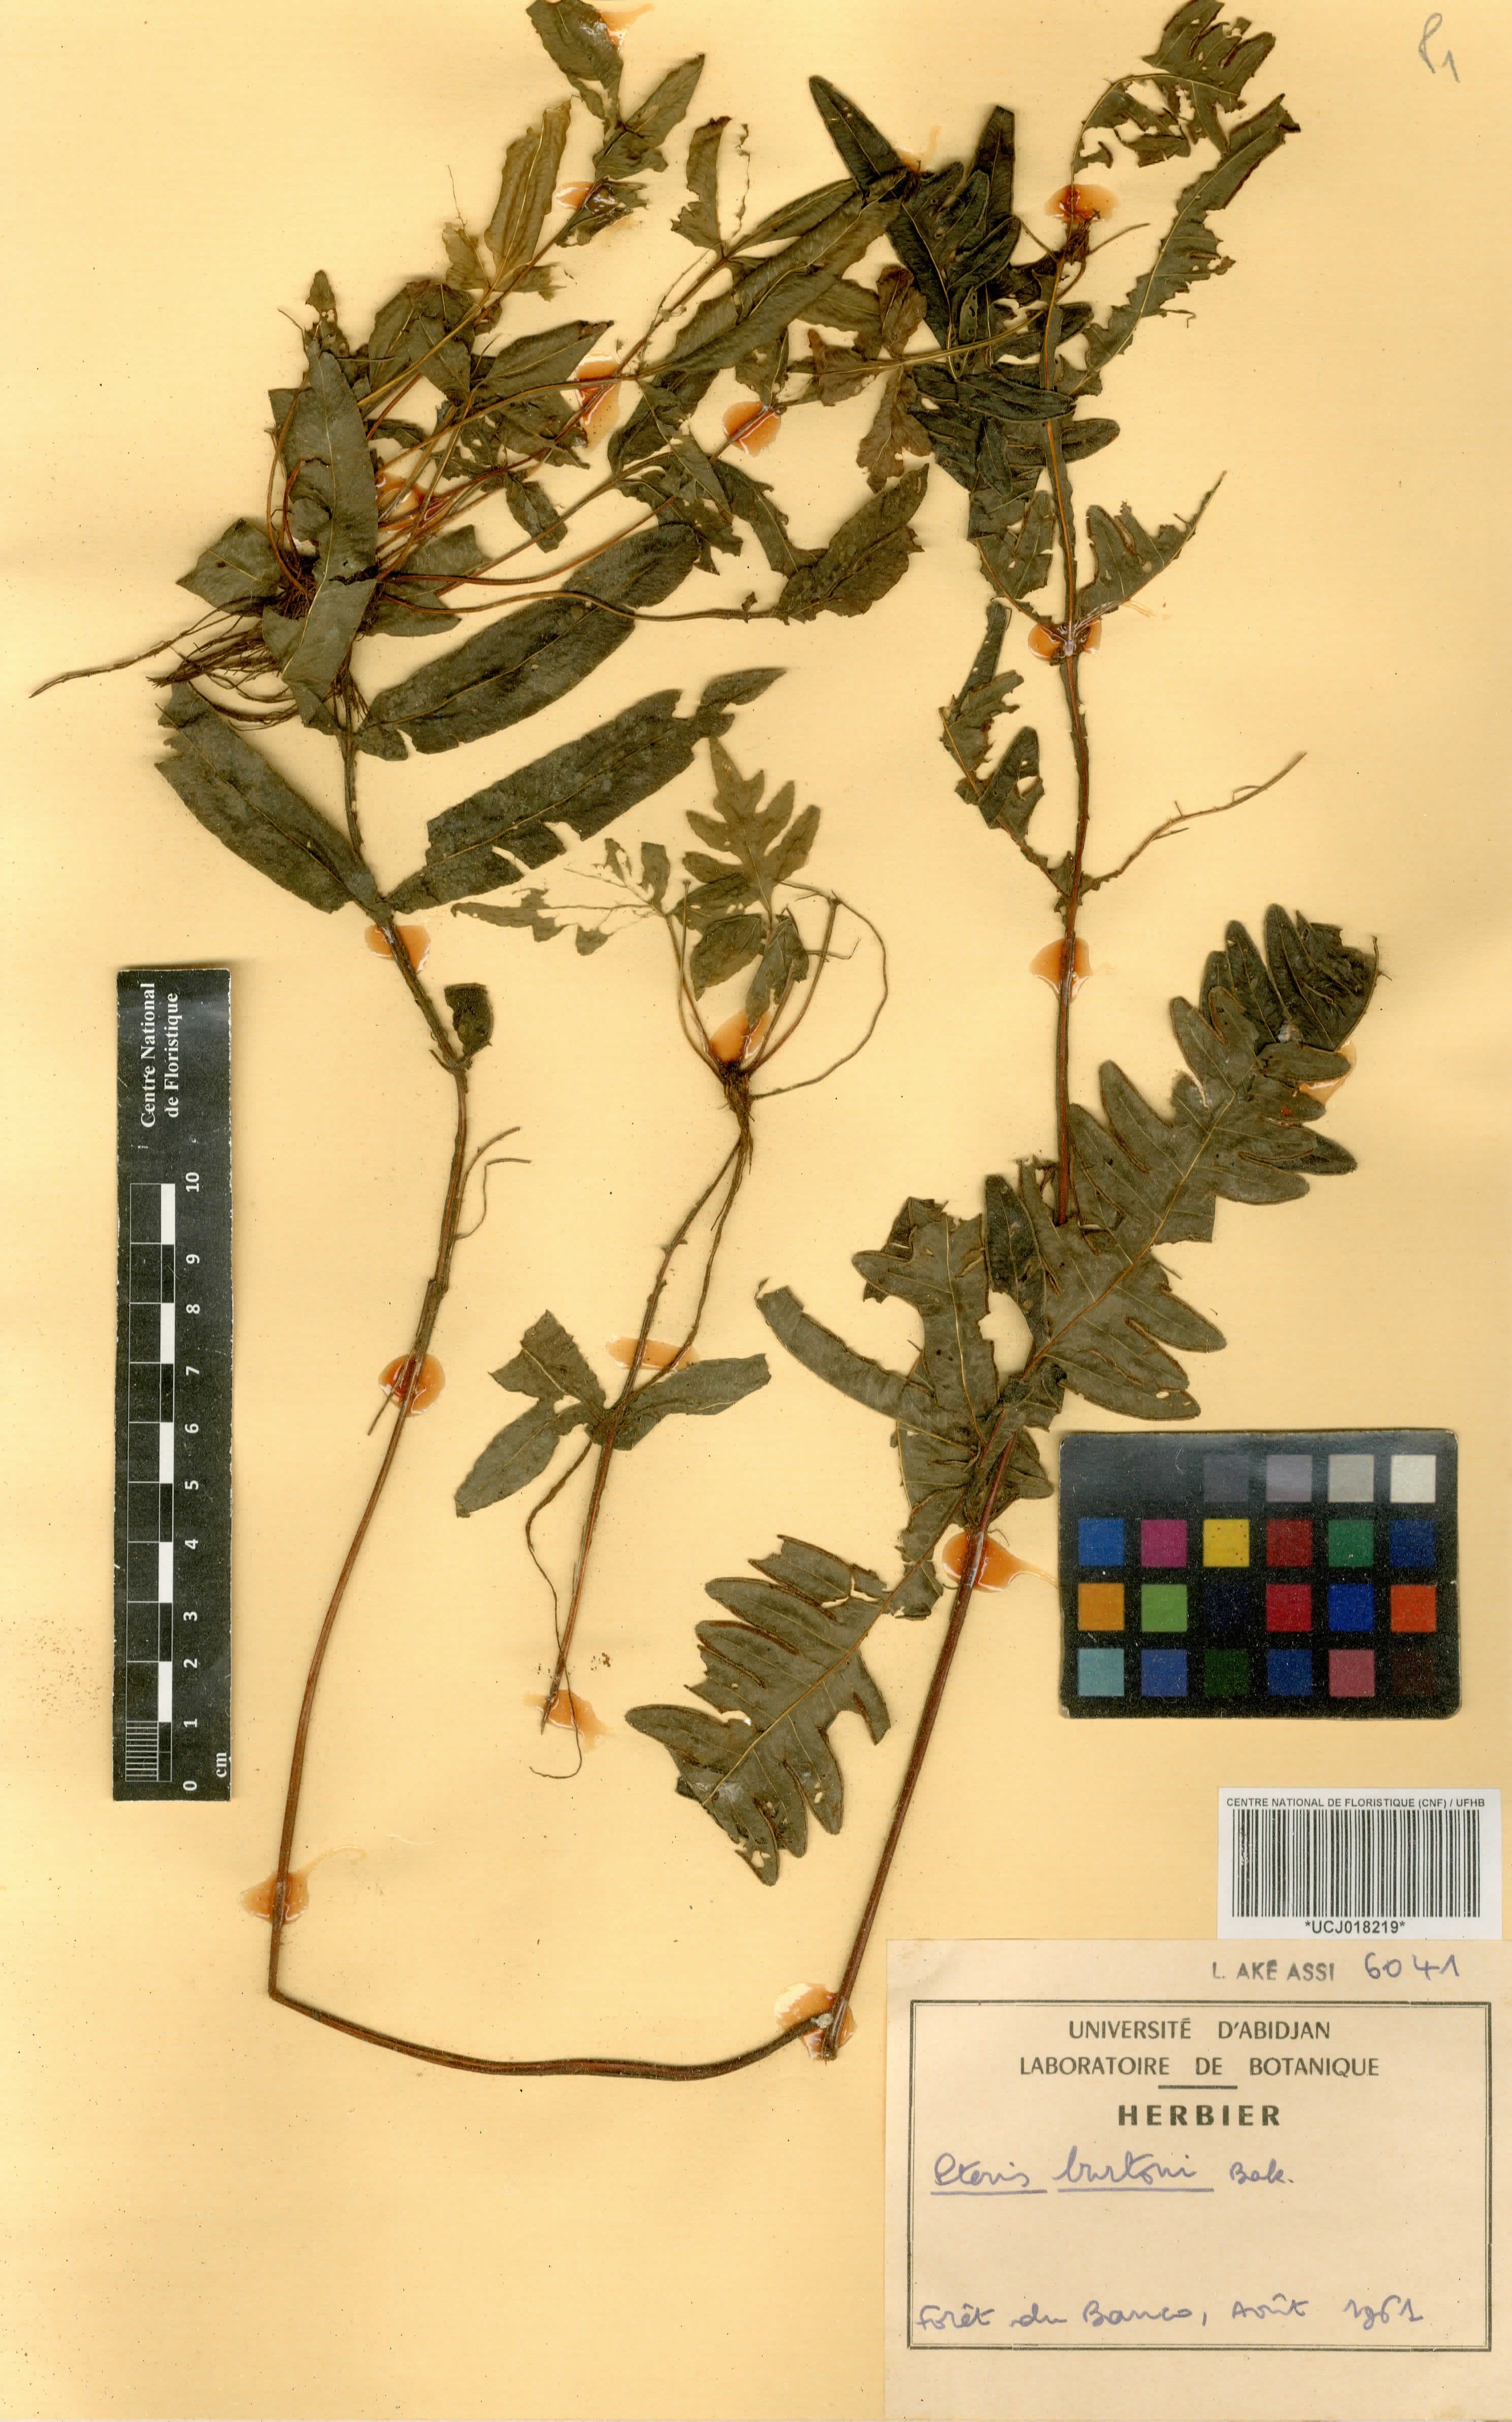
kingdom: Plantae
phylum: Tracheophyta
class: Polypodiopsida
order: Polypodiales
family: Pteridaceae
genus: Pteris
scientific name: Pteris burtonii
